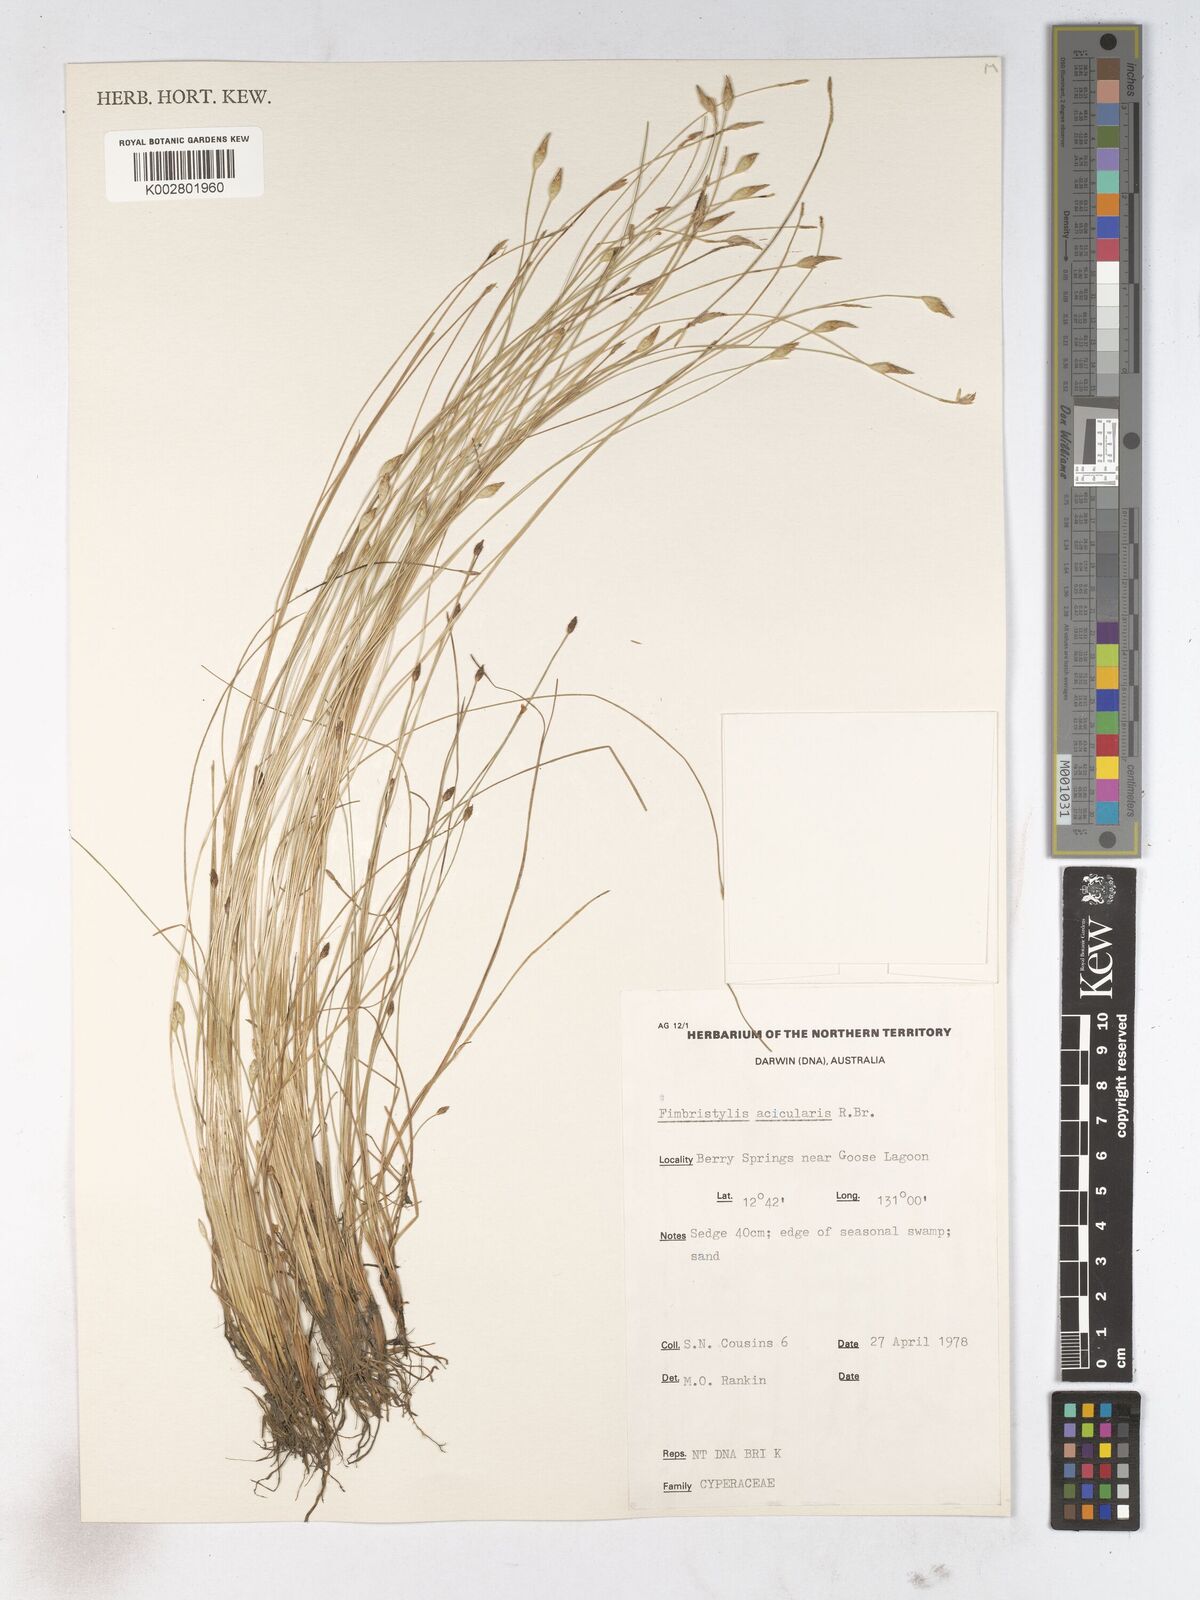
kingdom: Plantae
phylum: Tracheophyta
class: Liliopsida
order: Poales
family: Cyperaceae
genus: Fimbristylis
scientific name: Fimbristylis acicularis
